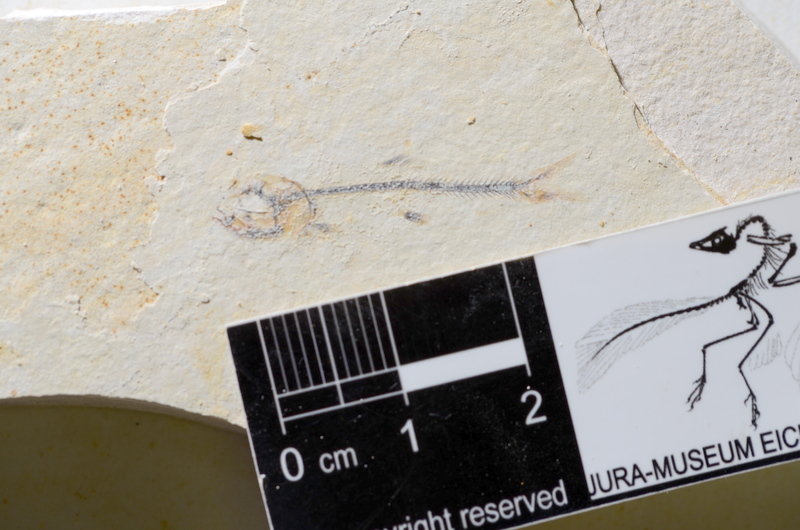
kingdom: Animalia
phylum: Chordata
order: Salmoniformes
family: Orthogonikleithridae
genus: Orthogonikleithrus
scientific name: Orthogonikleithrus hoelli
